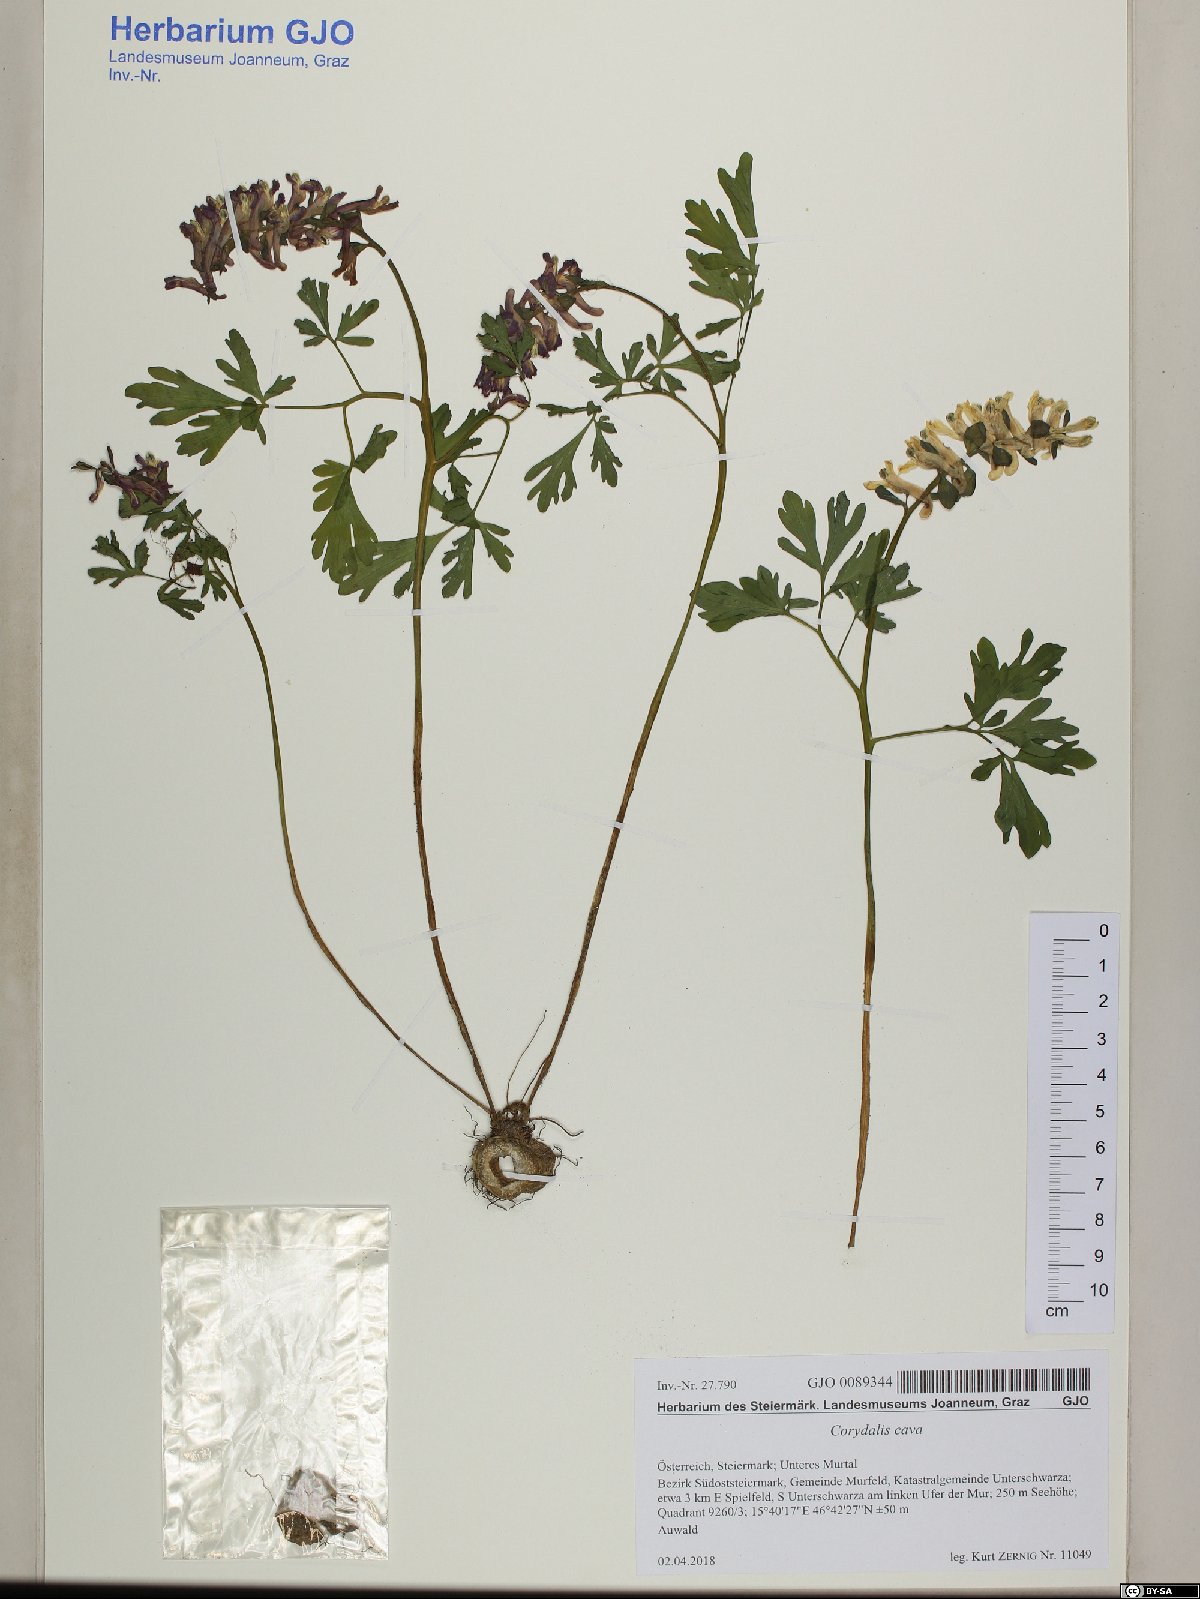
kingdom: Plantae
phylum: Tracheophyta
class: Magnoliopsida
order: Ranunculales
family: Papaveraceae
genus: Corydalis
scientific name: Corydalis cava
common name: Hollowroot
